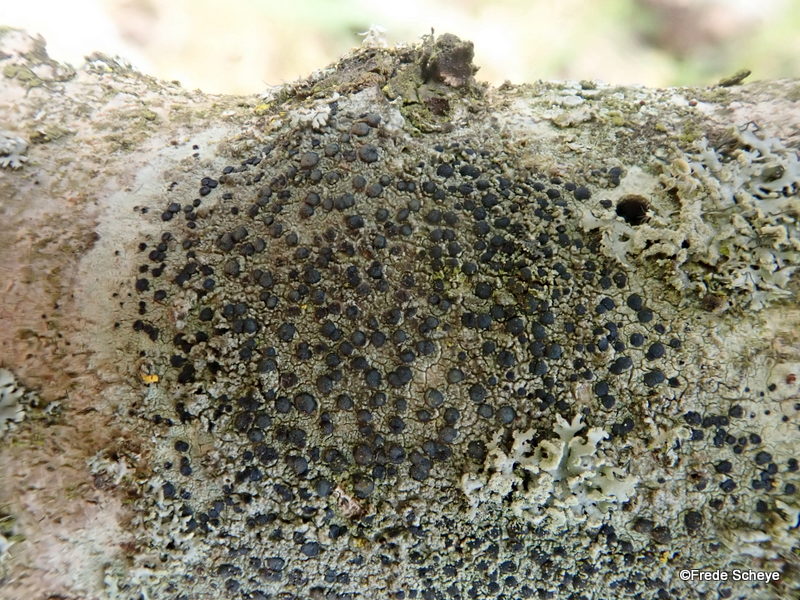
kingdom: Fungi
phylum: Ascomycota
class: Lecanoromycetes
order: Lecanorales
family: Lecanoraceae
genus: Lecidella
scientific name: Lecidella euphorea
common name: vortet skivelav
